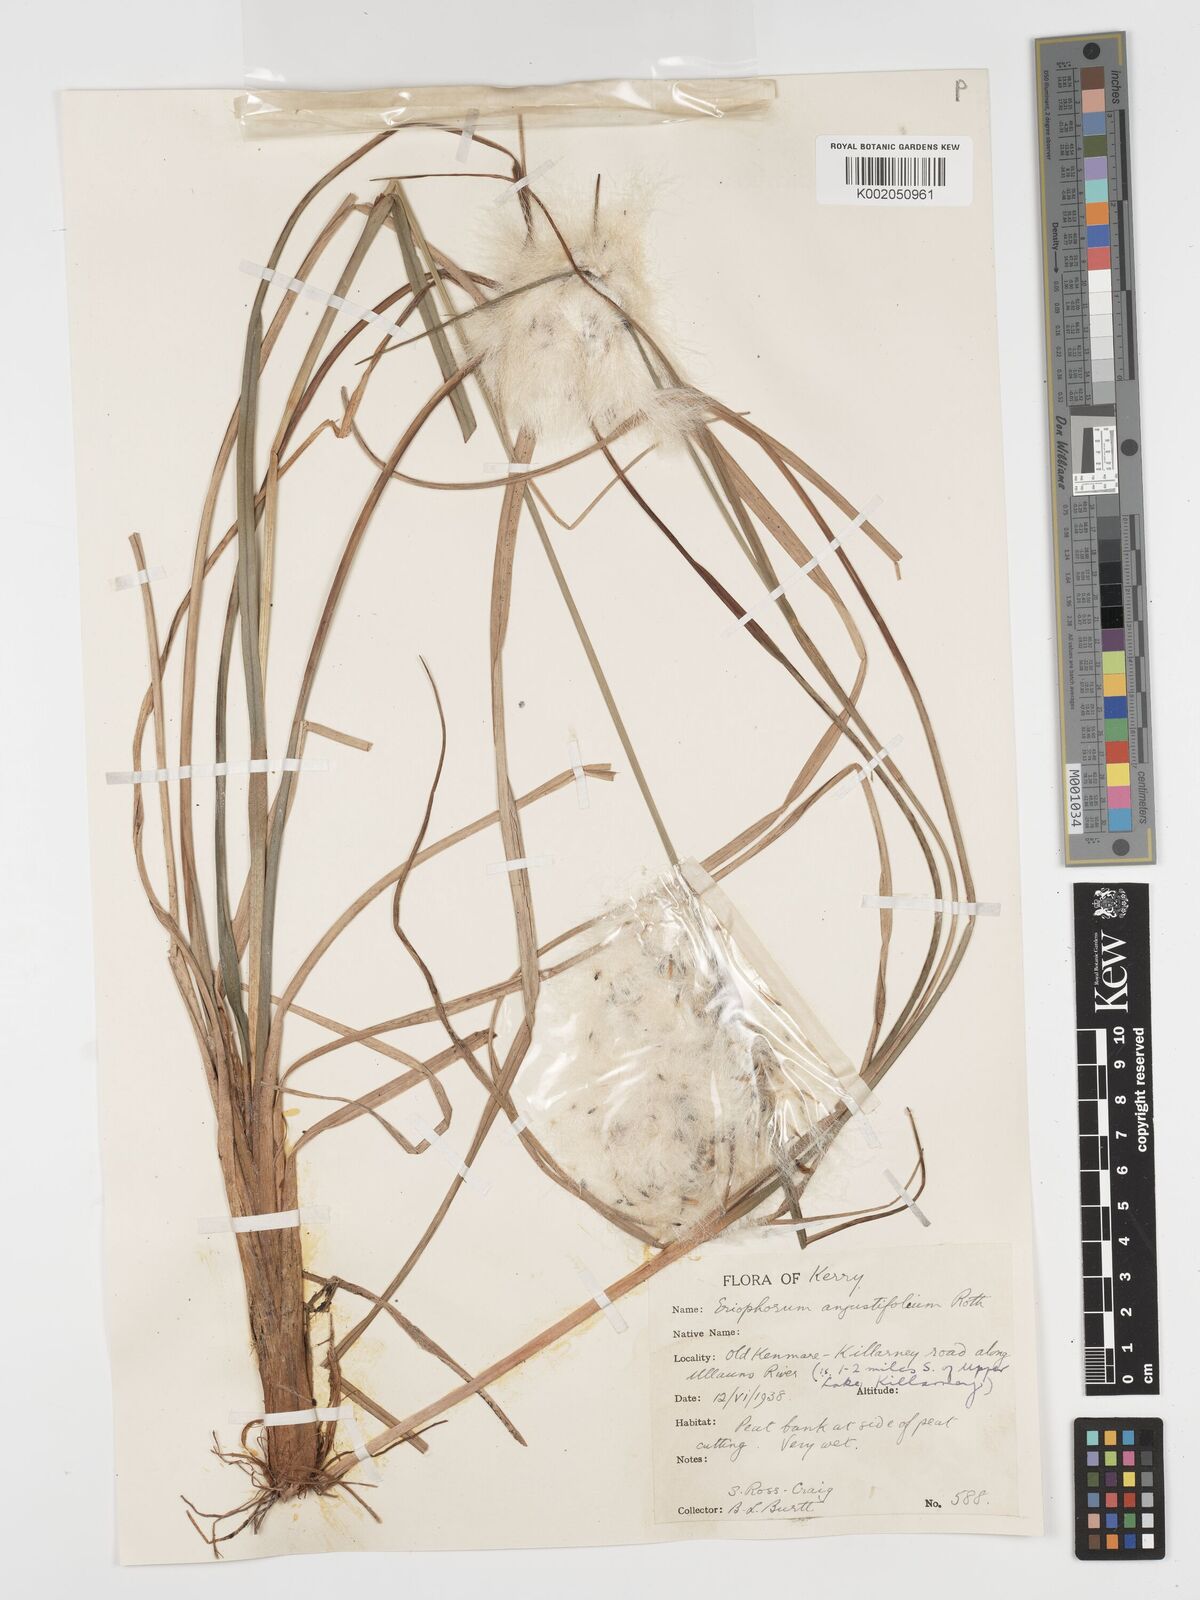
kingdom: Plantae
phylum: Tracheophyta
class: Liliopsida
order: Poales
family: Cyperaceae
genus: Eriophorum
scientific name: Eriophorum angustifolium
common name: Common cottongrass
